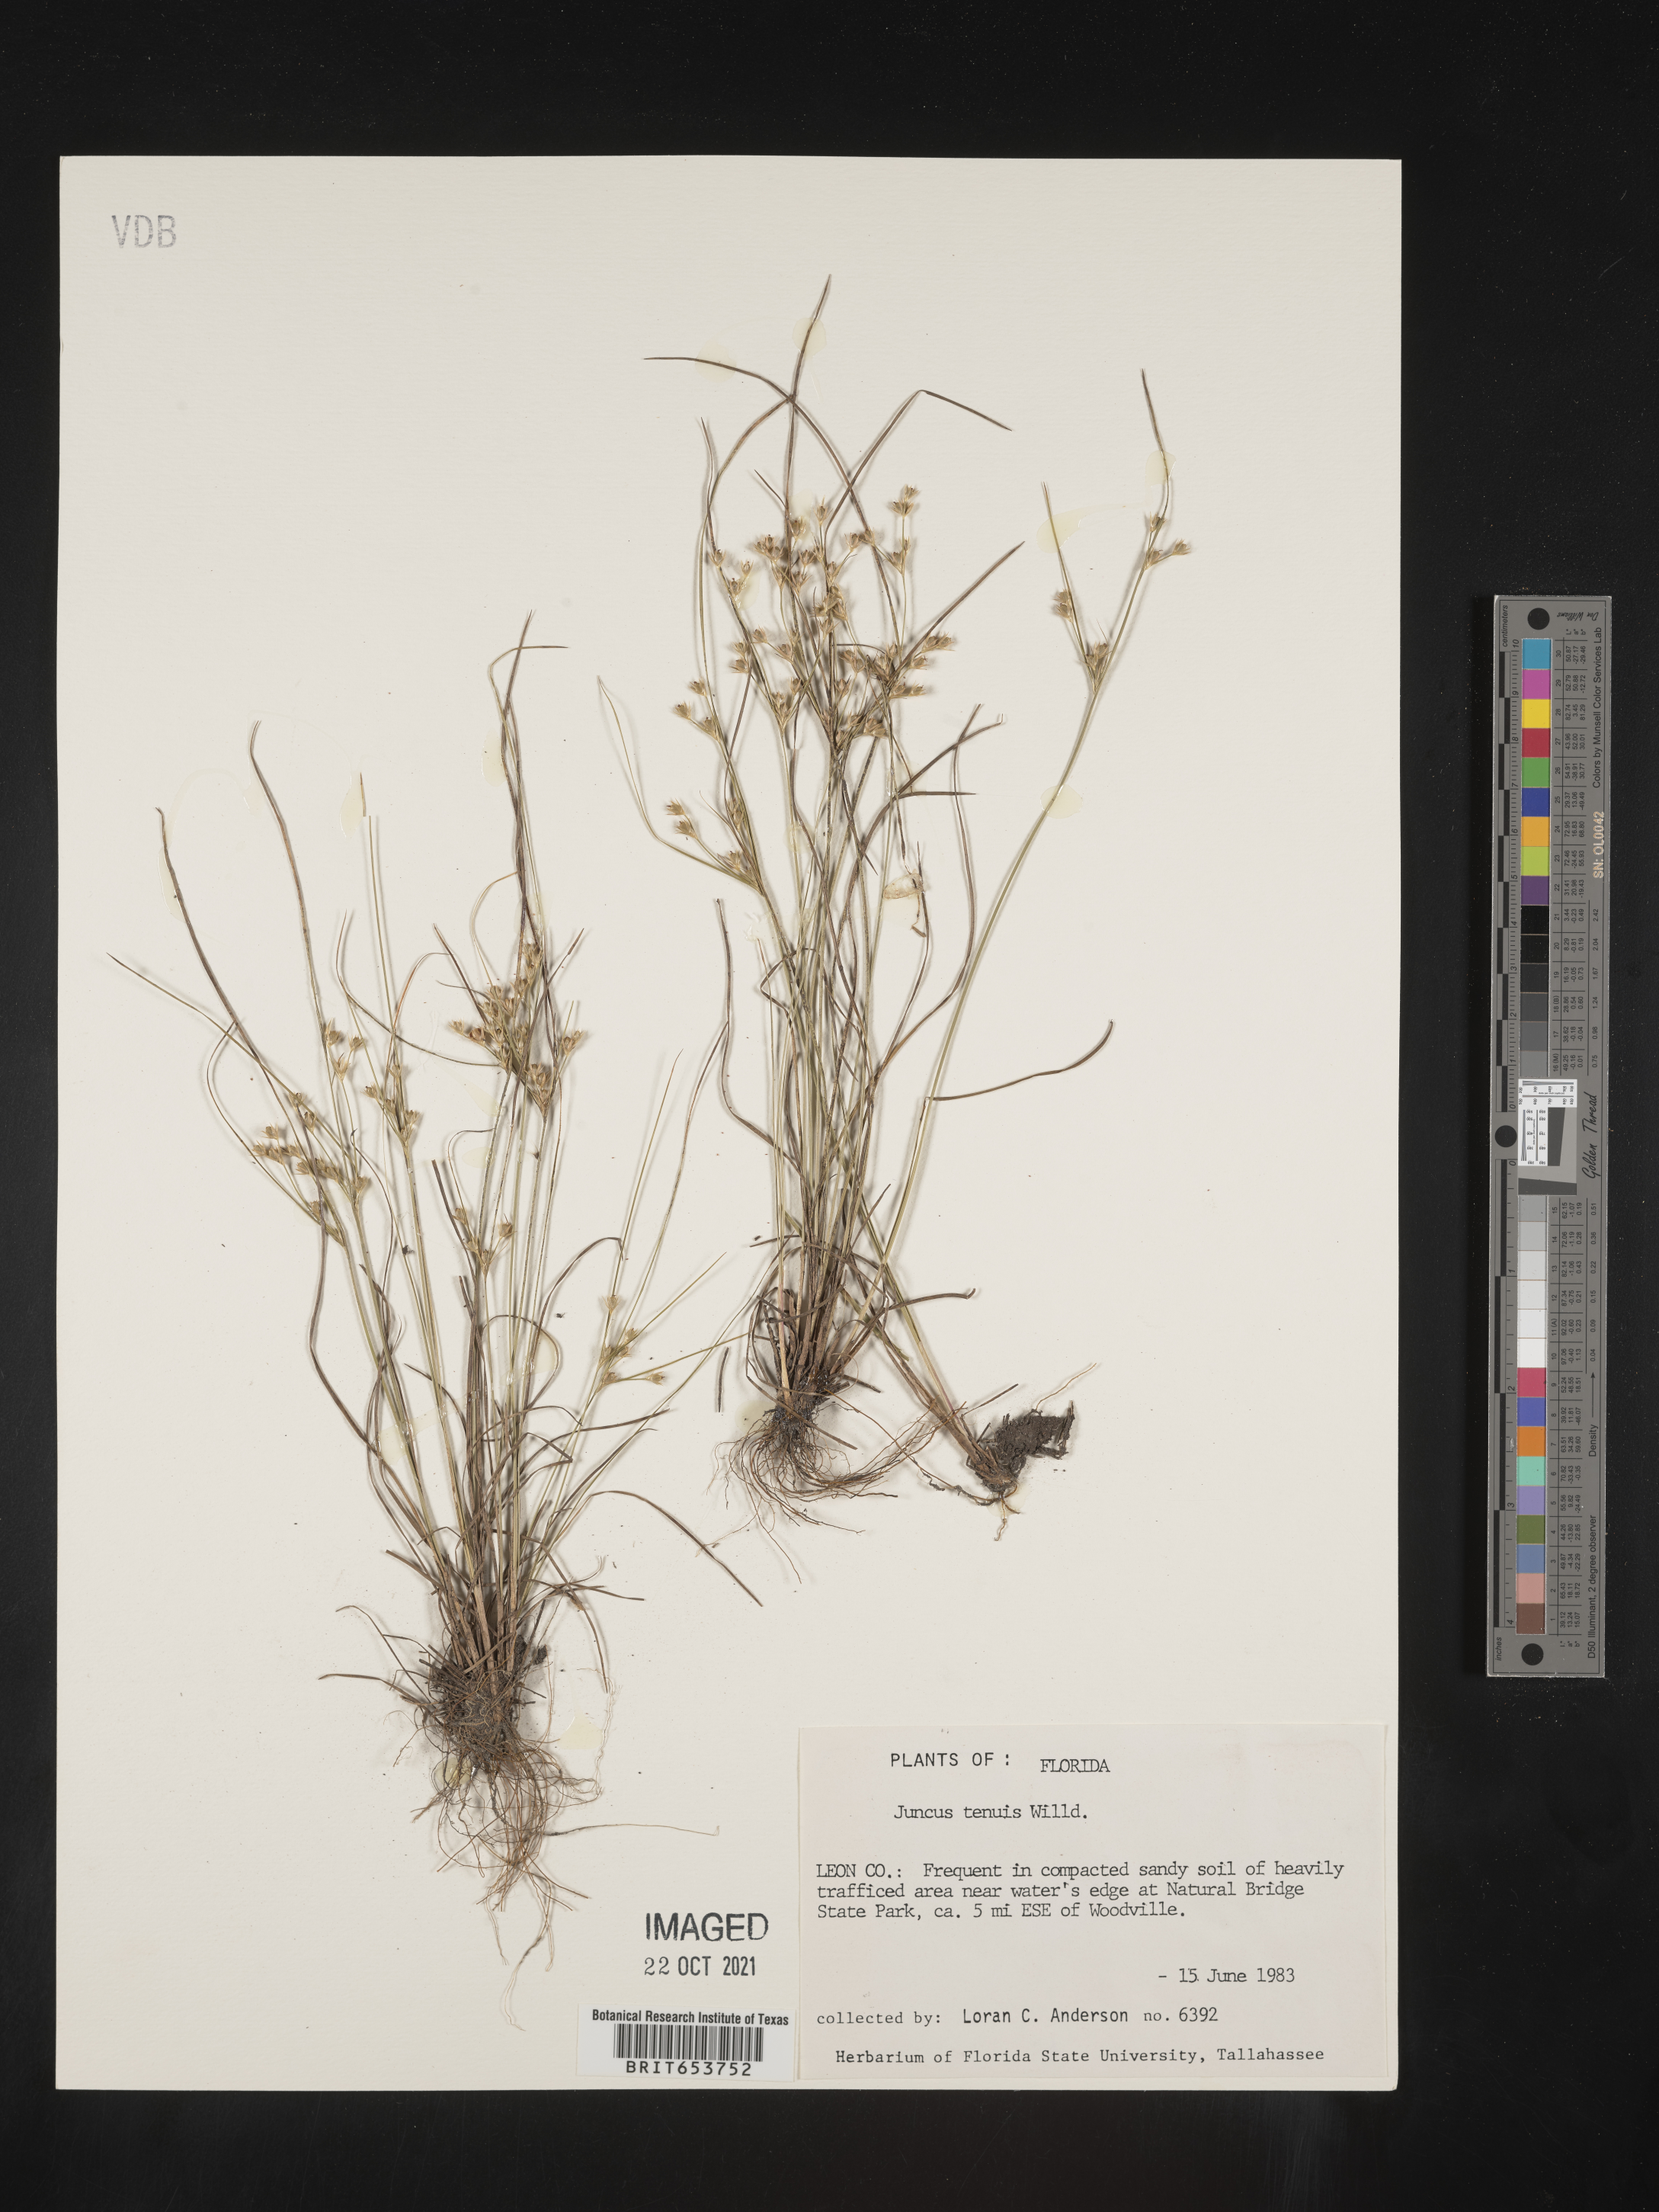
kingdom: Plantae
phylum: Tracheophyta
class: Liliopsida
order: Poales
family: Juncaceae
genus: Juncus
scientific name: Juncus tenuis
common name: Slender rush
